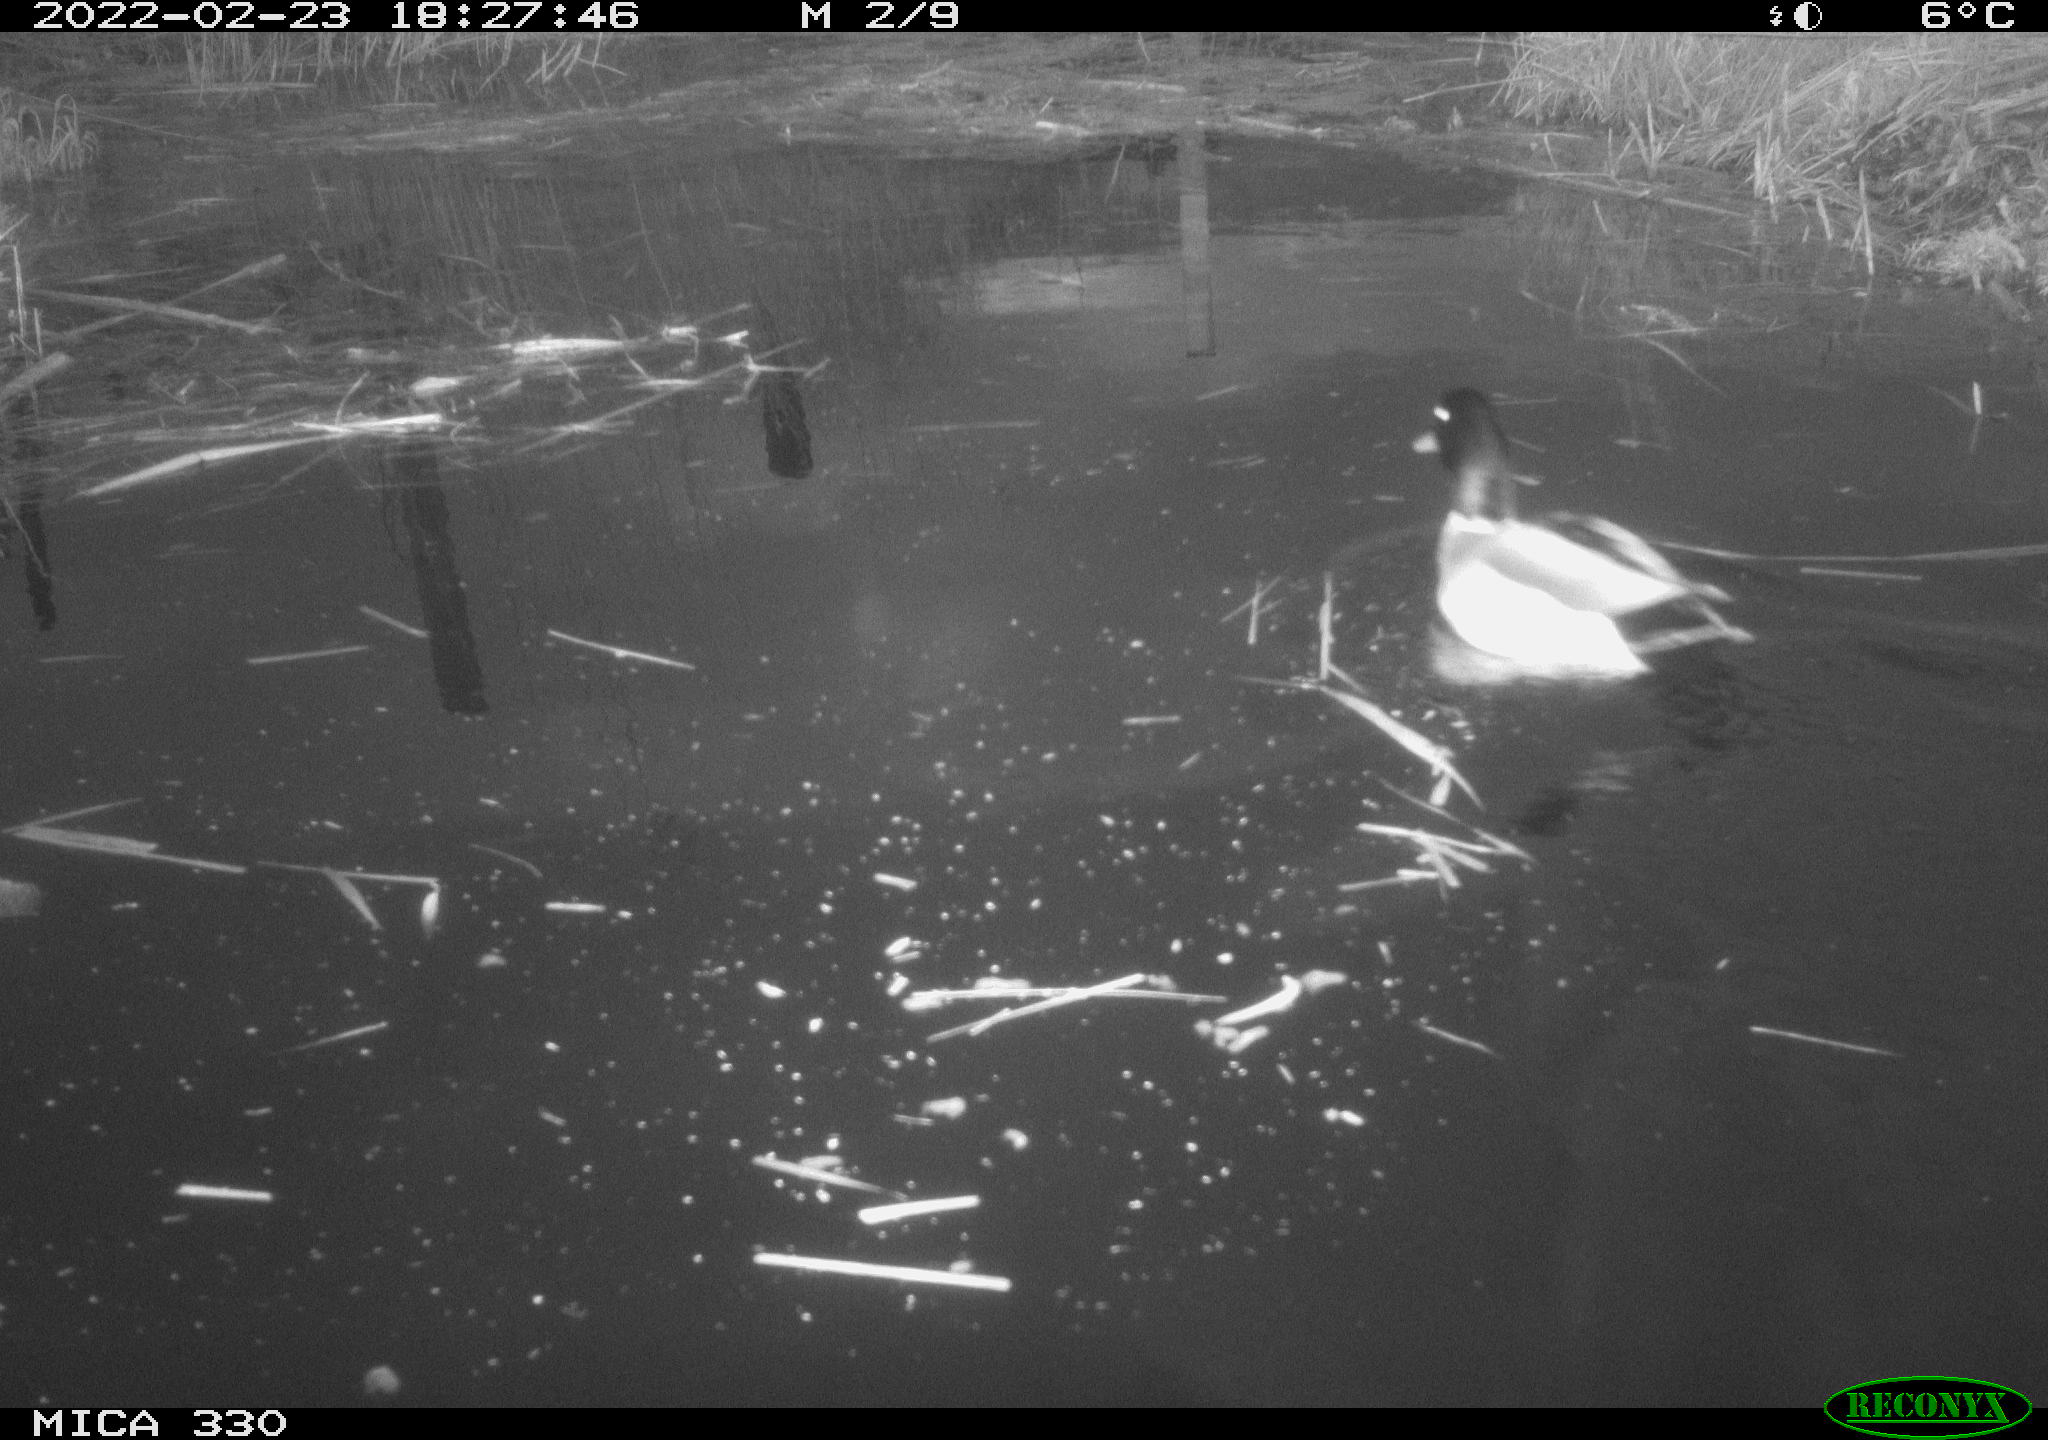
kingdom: Animalia
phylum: Chordata
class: Aves
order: Anseriformes
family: Anatidae
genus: Anas
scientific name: Anas platyrhynchos
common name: Mallard
